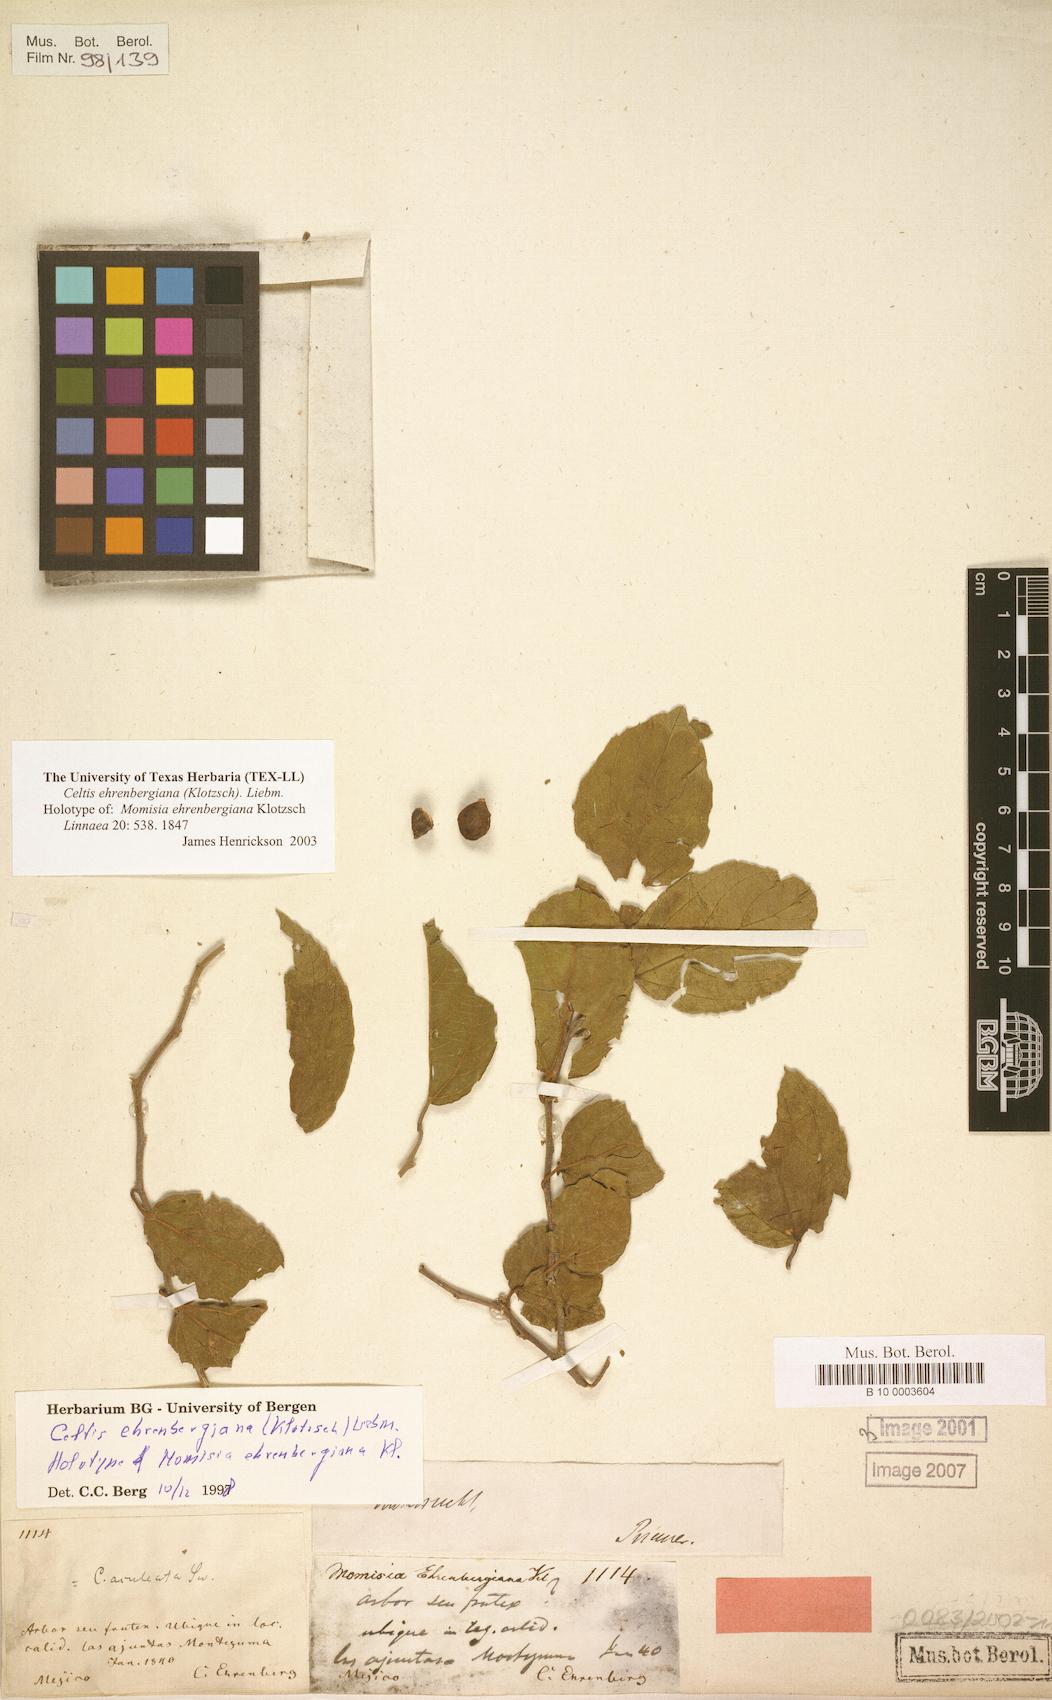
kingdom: Plantae
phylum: Tracheophyta
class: Magnoliopsida
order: Rosales
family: Cannabaceae
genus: Celtis
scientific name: Celtis iguanaea
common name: Iguana hackberry
